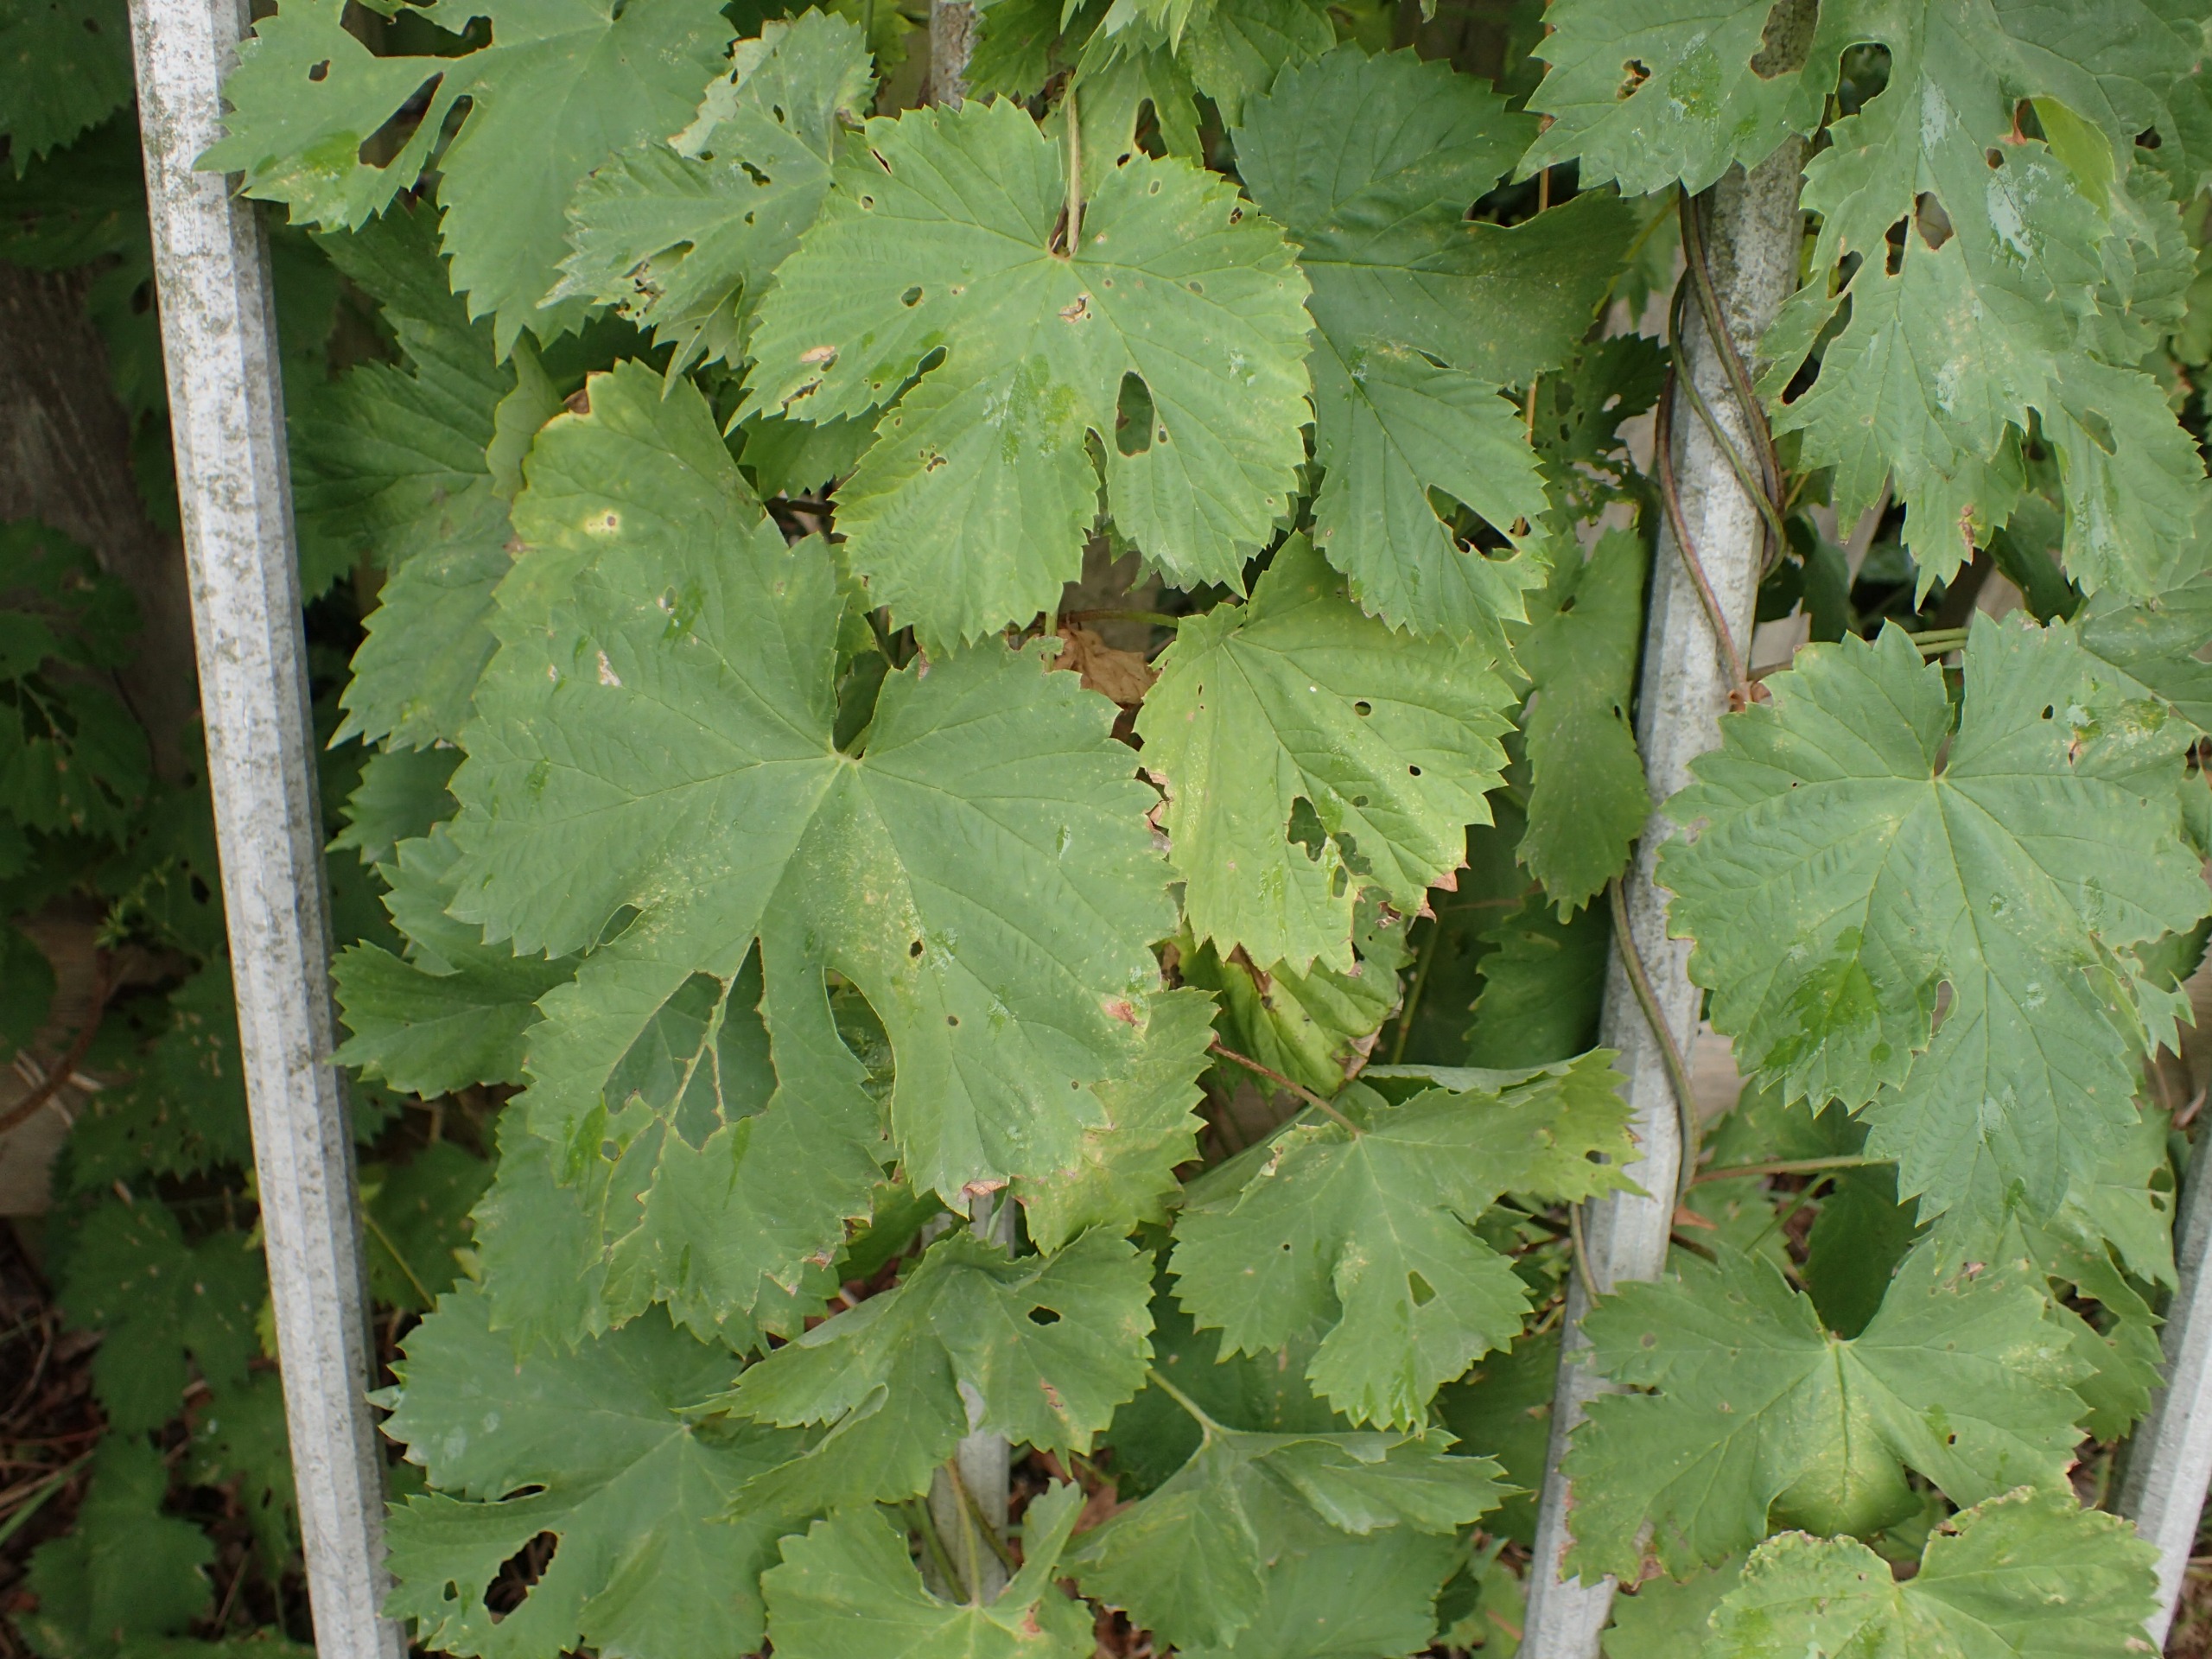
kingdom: Plantae
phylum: Tracheophyta
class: Magnoliopsida
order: Rosales
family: Cannabaceae
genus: Humulus
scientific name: Humulus lupulus
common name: Humle
